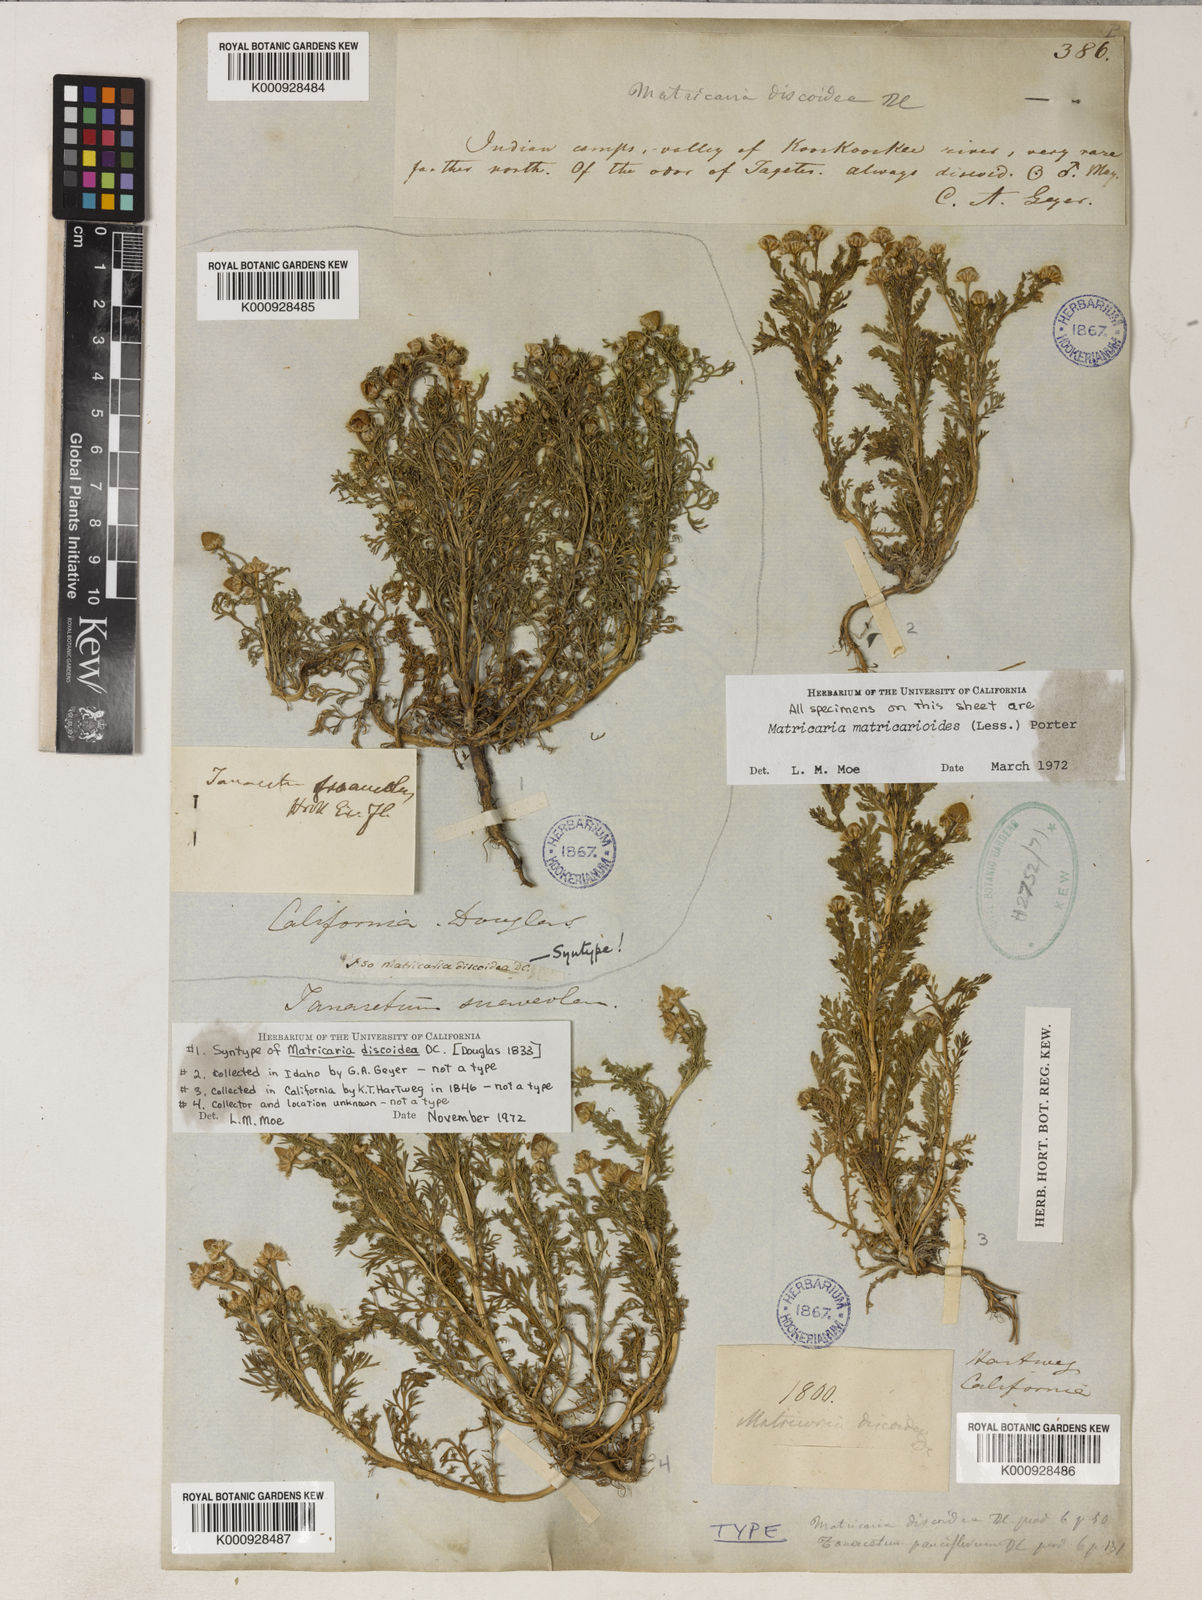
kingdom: Plantae
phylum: Tracheophyta
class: Magnoliopsida
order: Asterales
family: Asteraceae
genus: Matricaria
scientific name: Matricaria discoidea
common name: Disc mayweed
